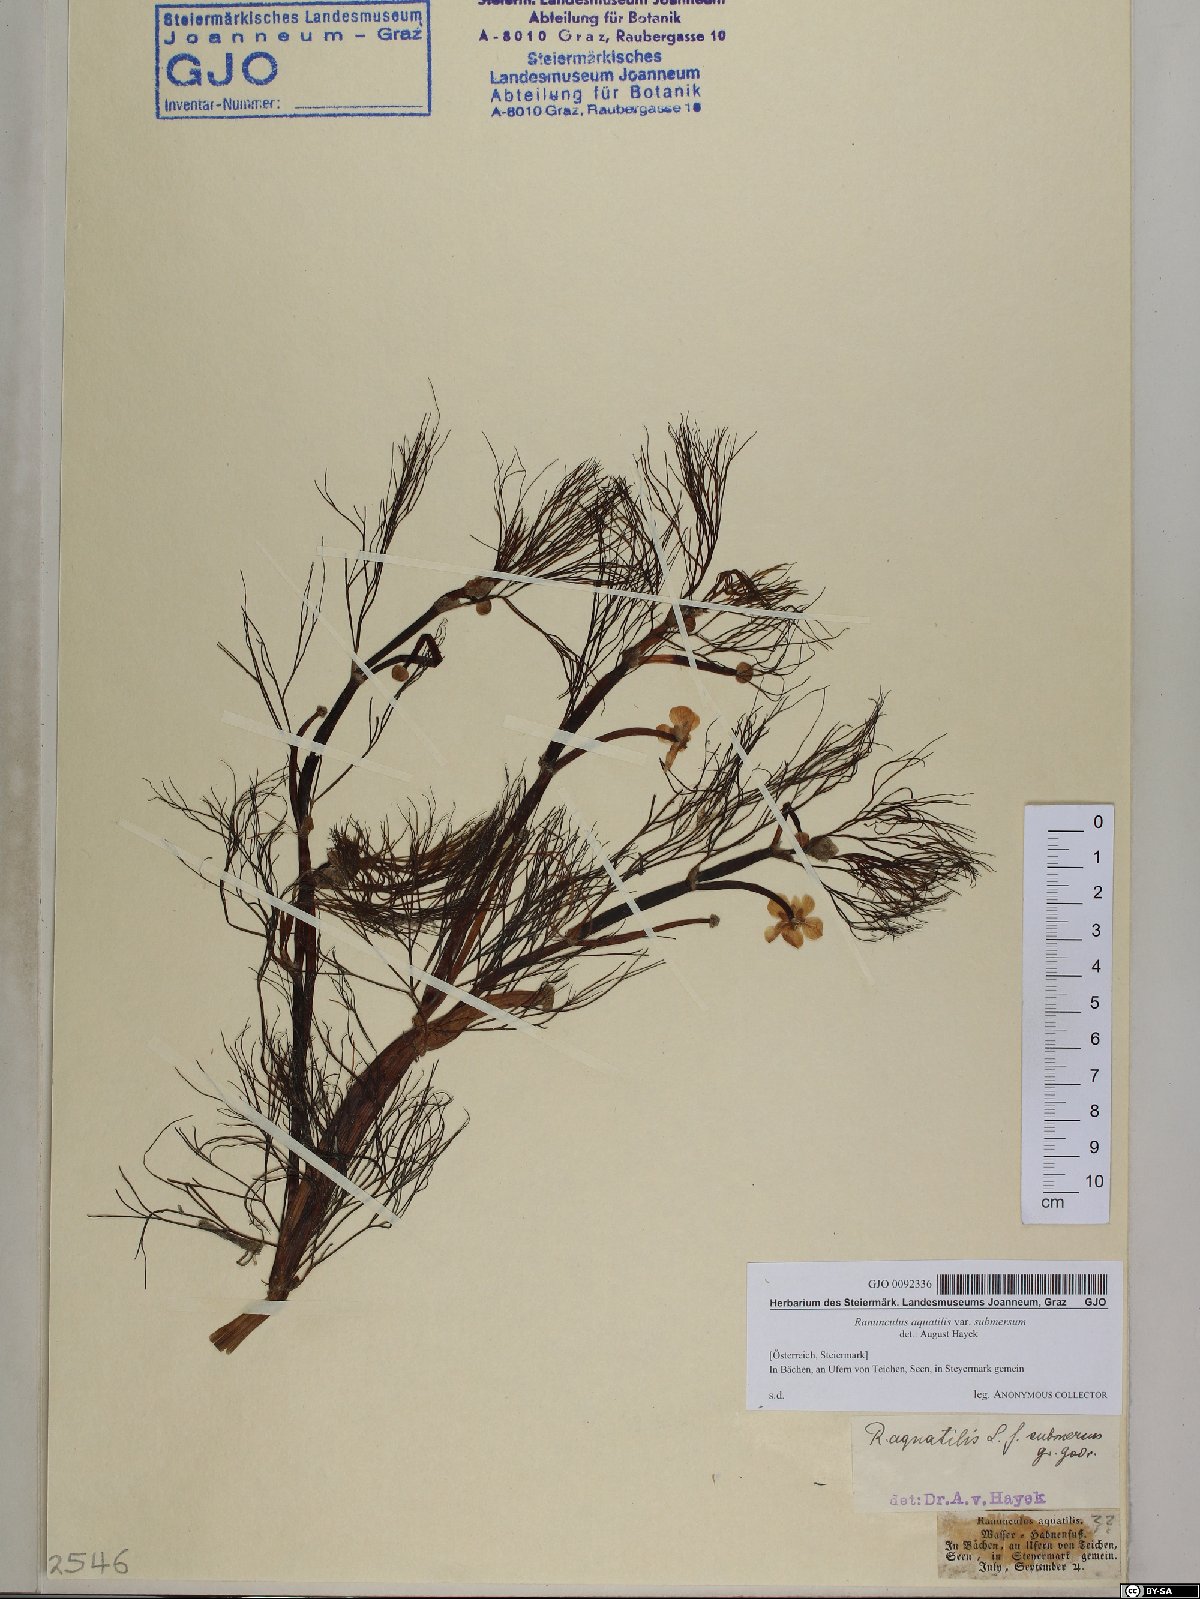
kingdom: Plantae
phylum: Tracheophyta
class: Magnoliopsida
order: Ranunculales
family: Ranunculaceae
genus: Ranunculus
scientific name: Ranunculus aquatilis
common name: Common water-crowfoot
